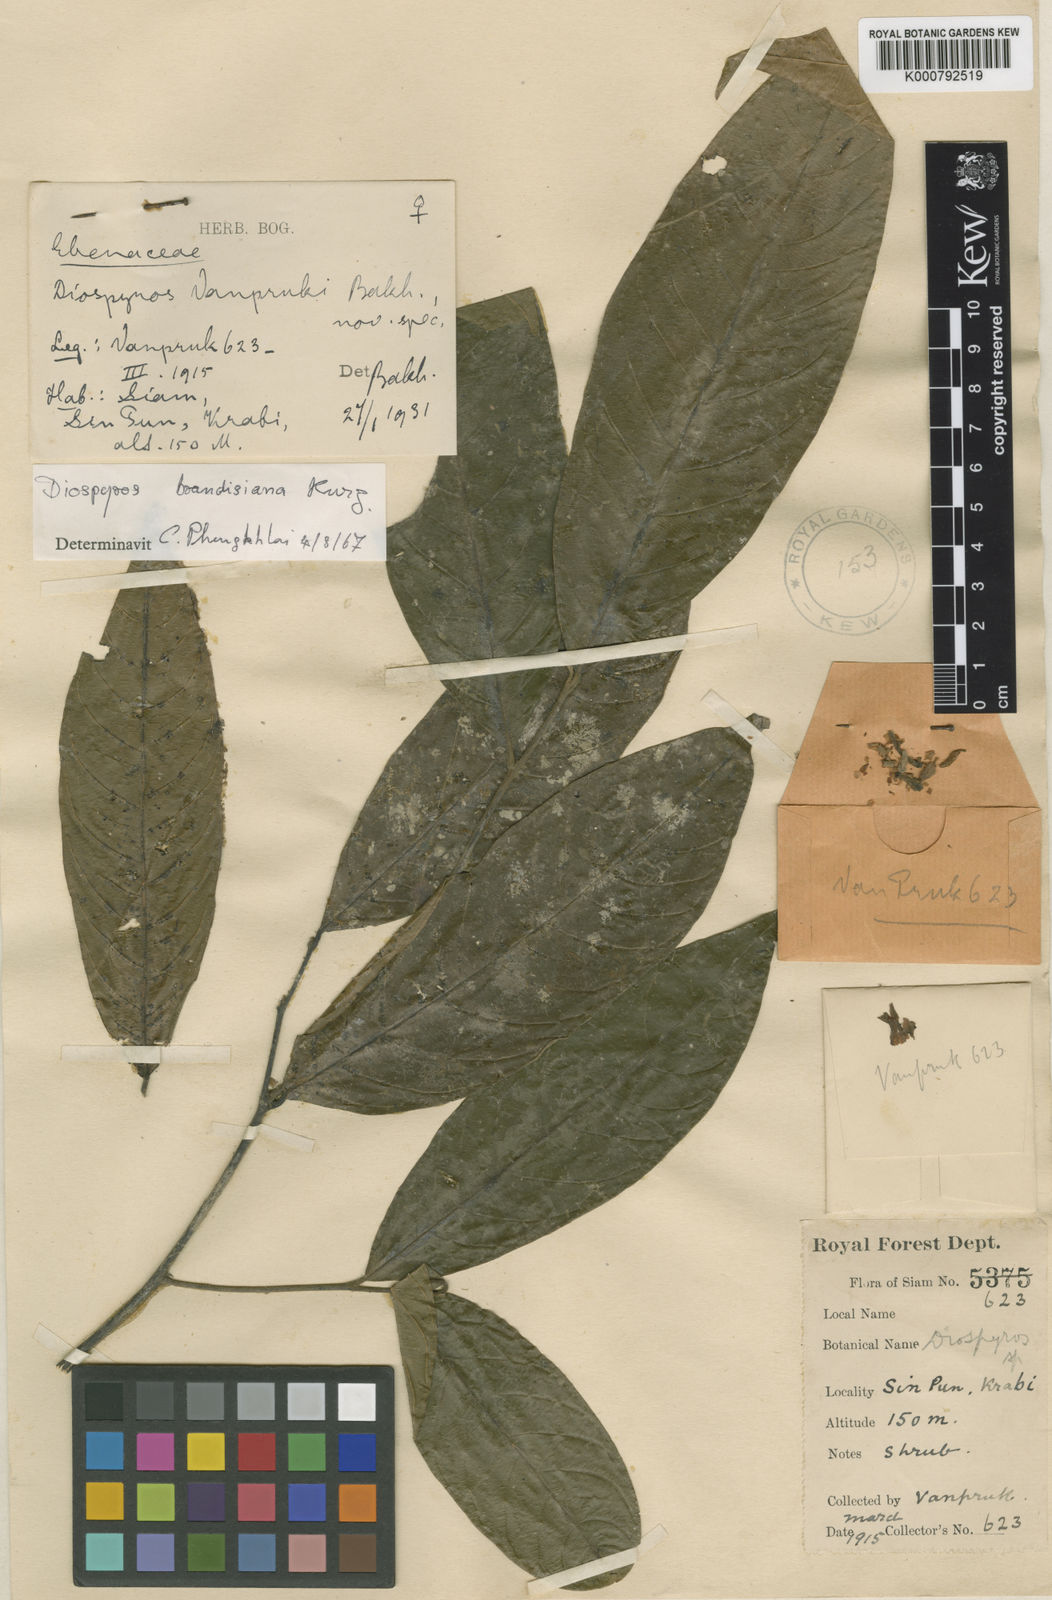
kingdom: Plantae
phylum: Tracheophyta
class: Magnoliopsida
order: Ericales
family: Ebenaceae
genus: Diospyros
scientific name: Diospyros selangorensis
